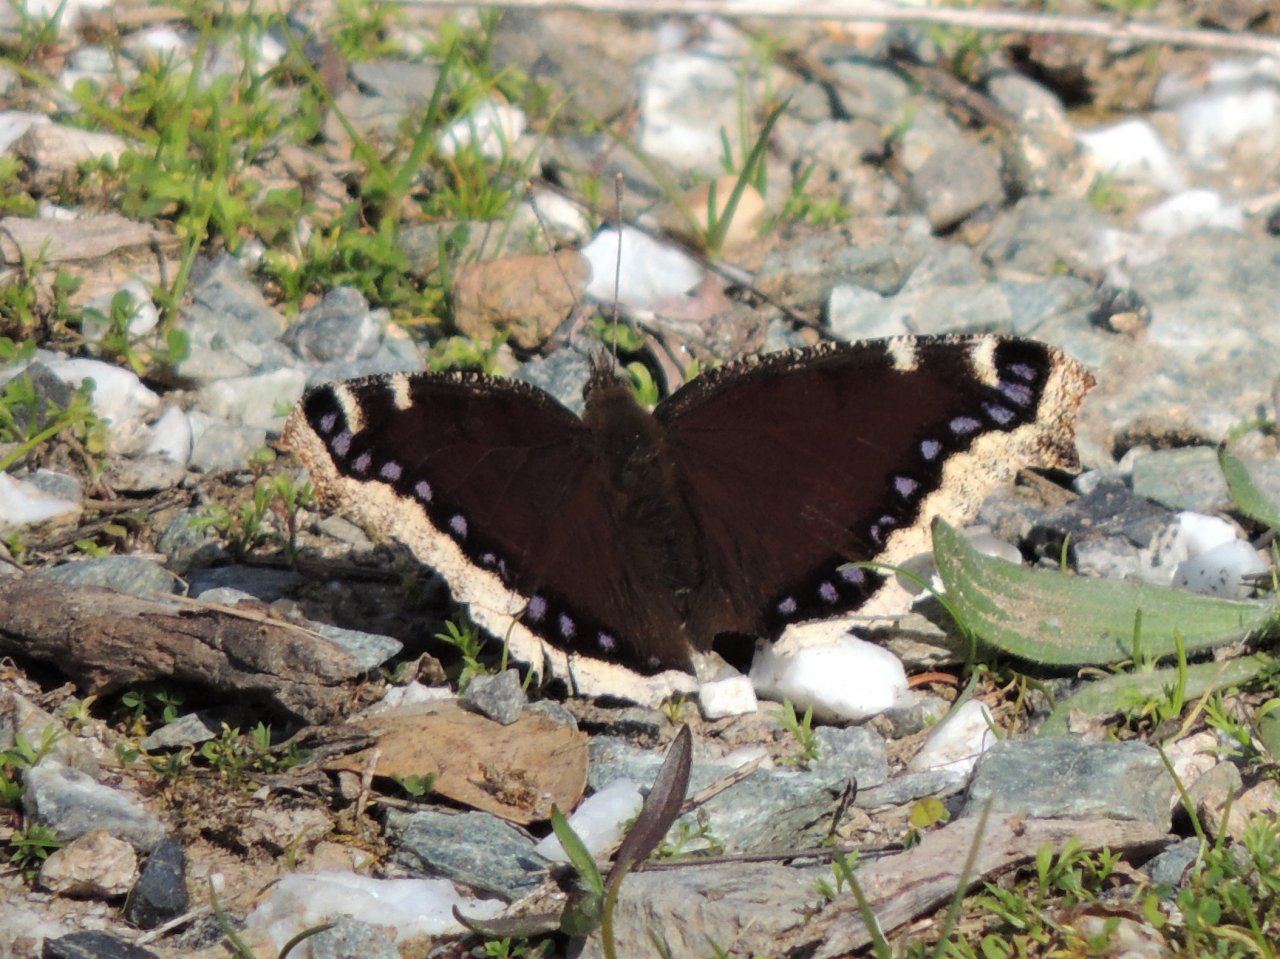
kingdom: Animalia
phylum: Arthropoda
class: Insecta
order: Lepidoptera
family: Nymphalidae
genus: Nymphalis
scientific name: Nymphalis antiopa
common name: Mourning Cloak
